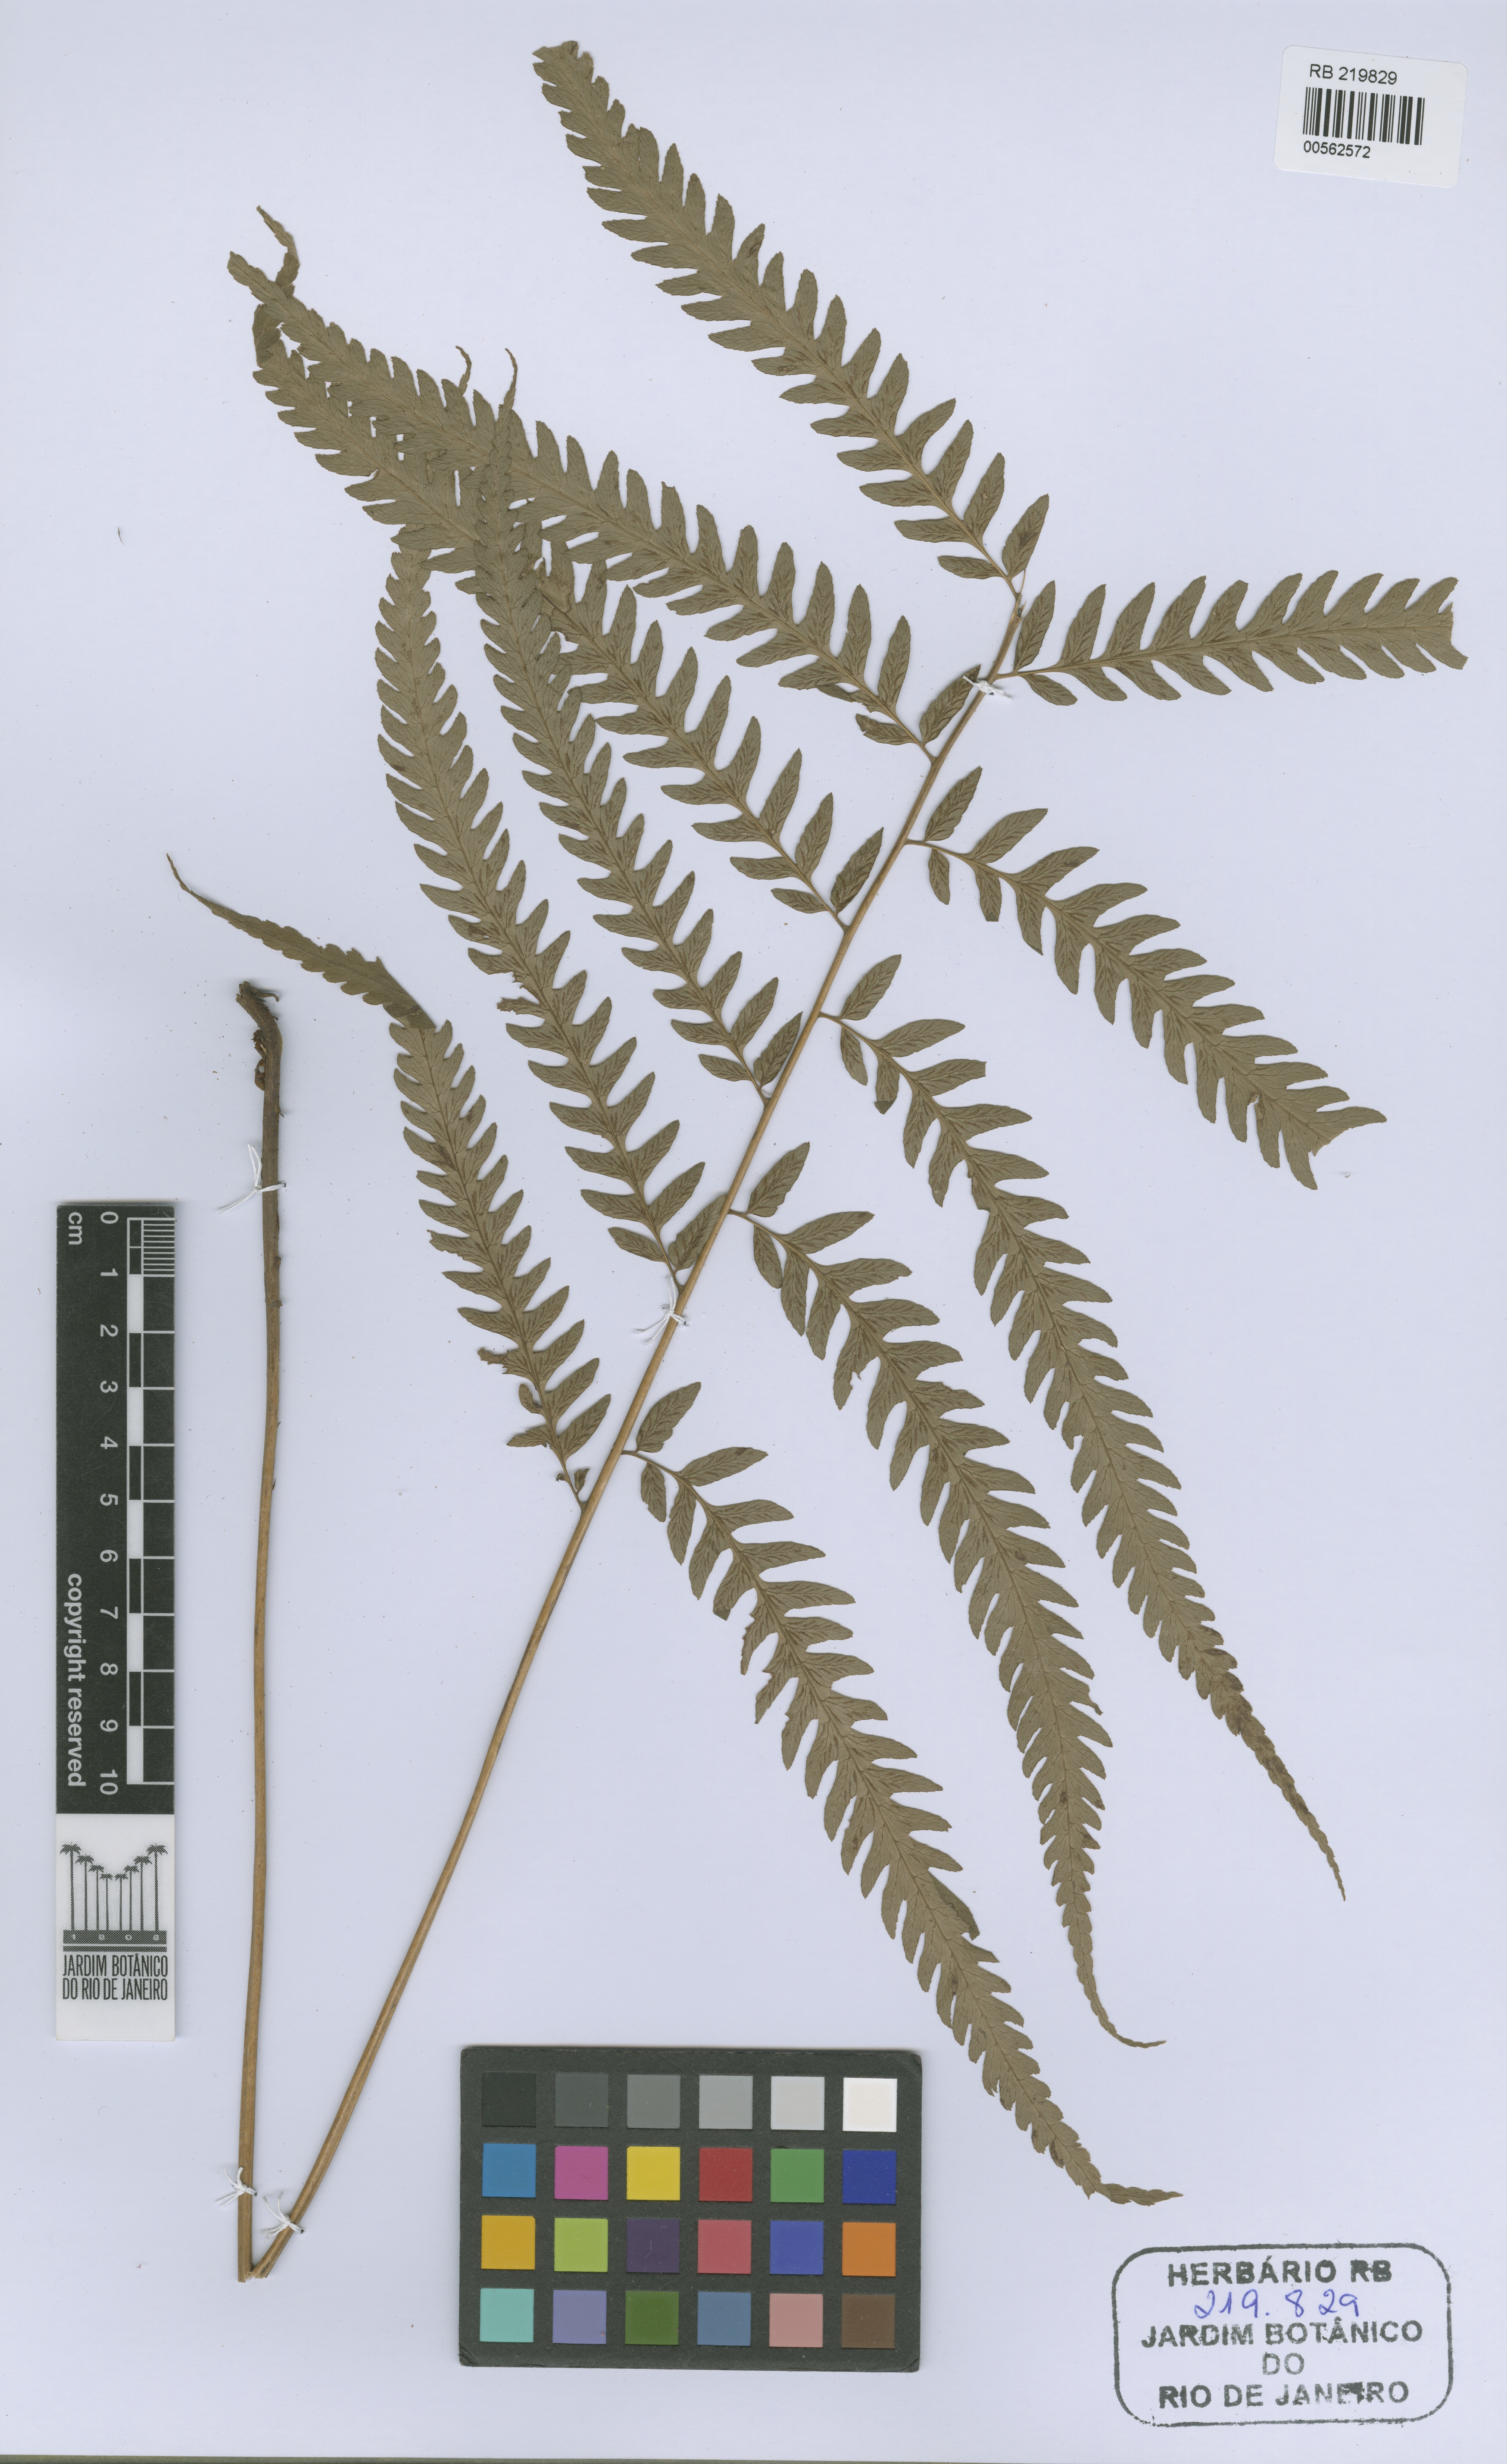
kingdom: Plantae
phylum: Tracheophyta
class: Polypodiopsida
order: Polypodiales
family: Athyriaceae
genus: Diplazium
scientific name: Diplazium lonchophyllum
